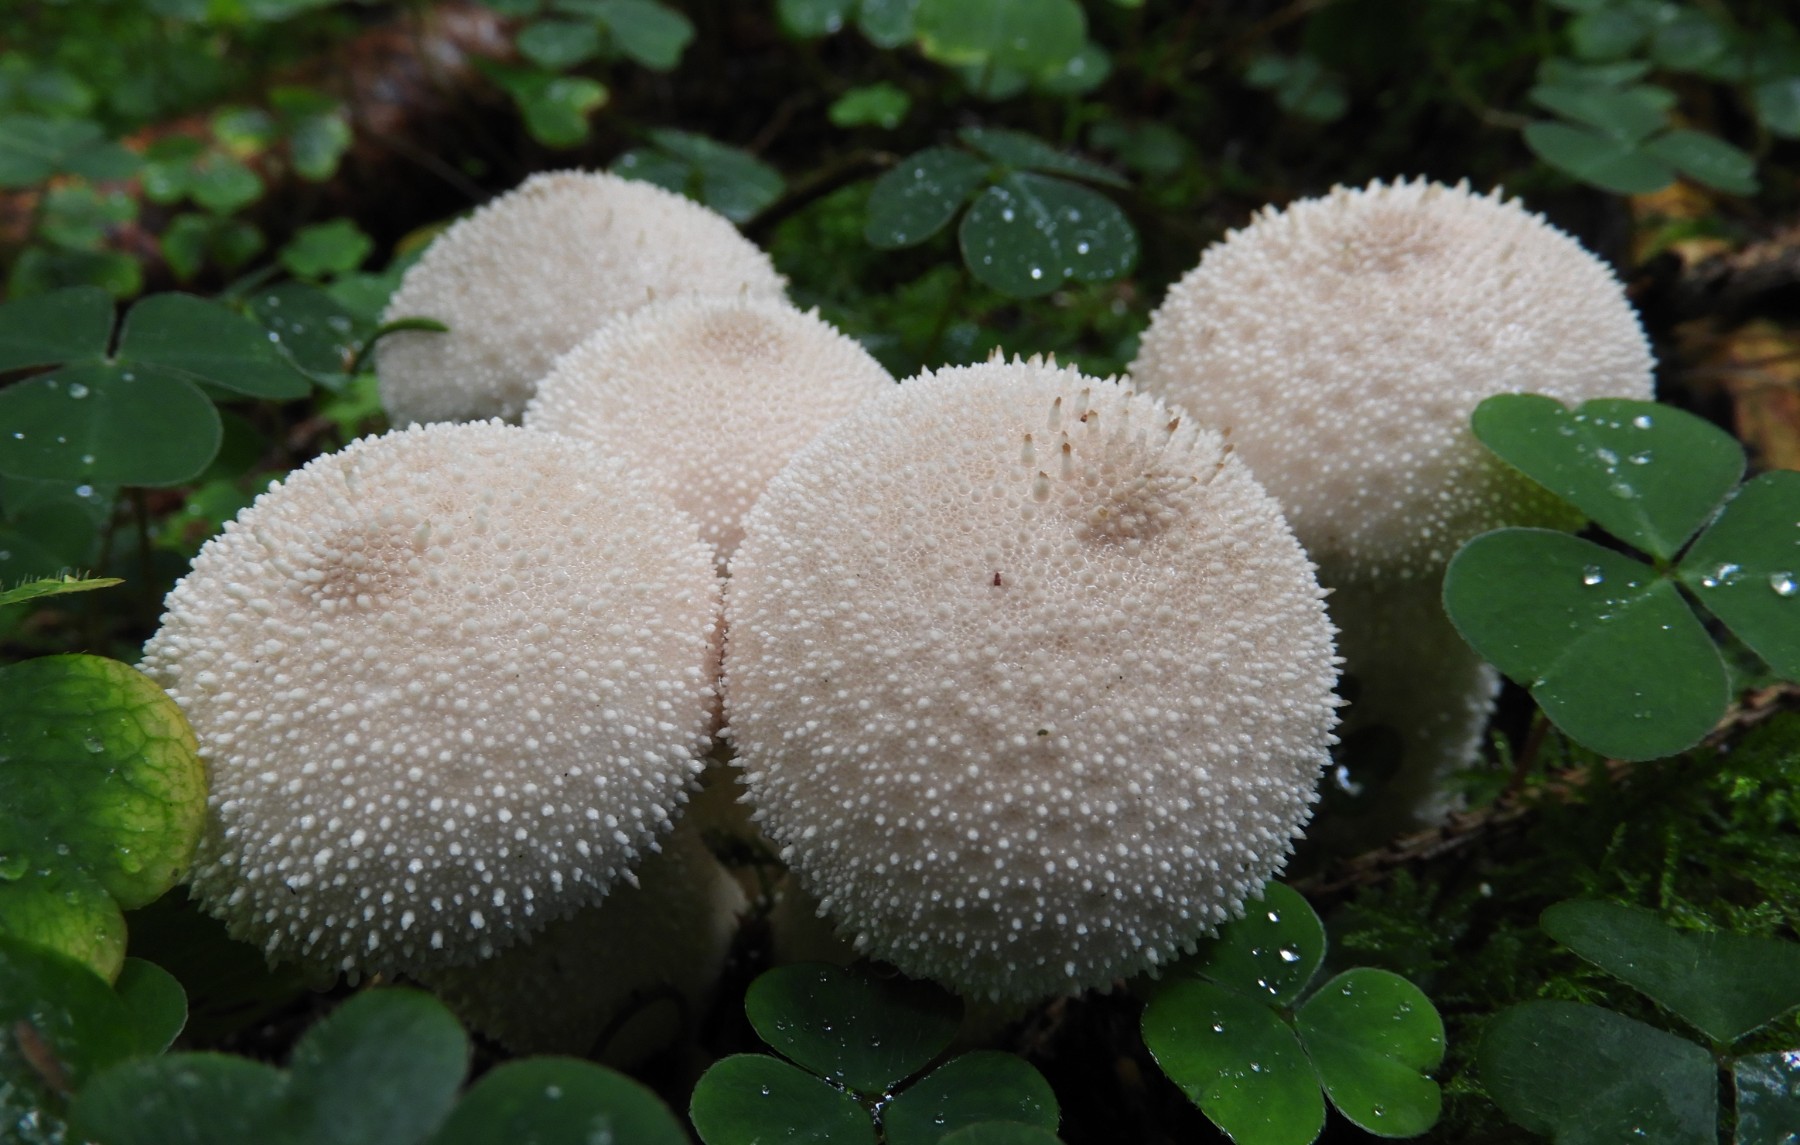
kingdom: Fungi
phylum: Basidiomycota
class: Agaricomycetes
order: Agaricales
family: Lycoperdaceae
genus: Lycoperdon
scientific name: Lycoperdon perlatum
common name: krystal-støvbold
